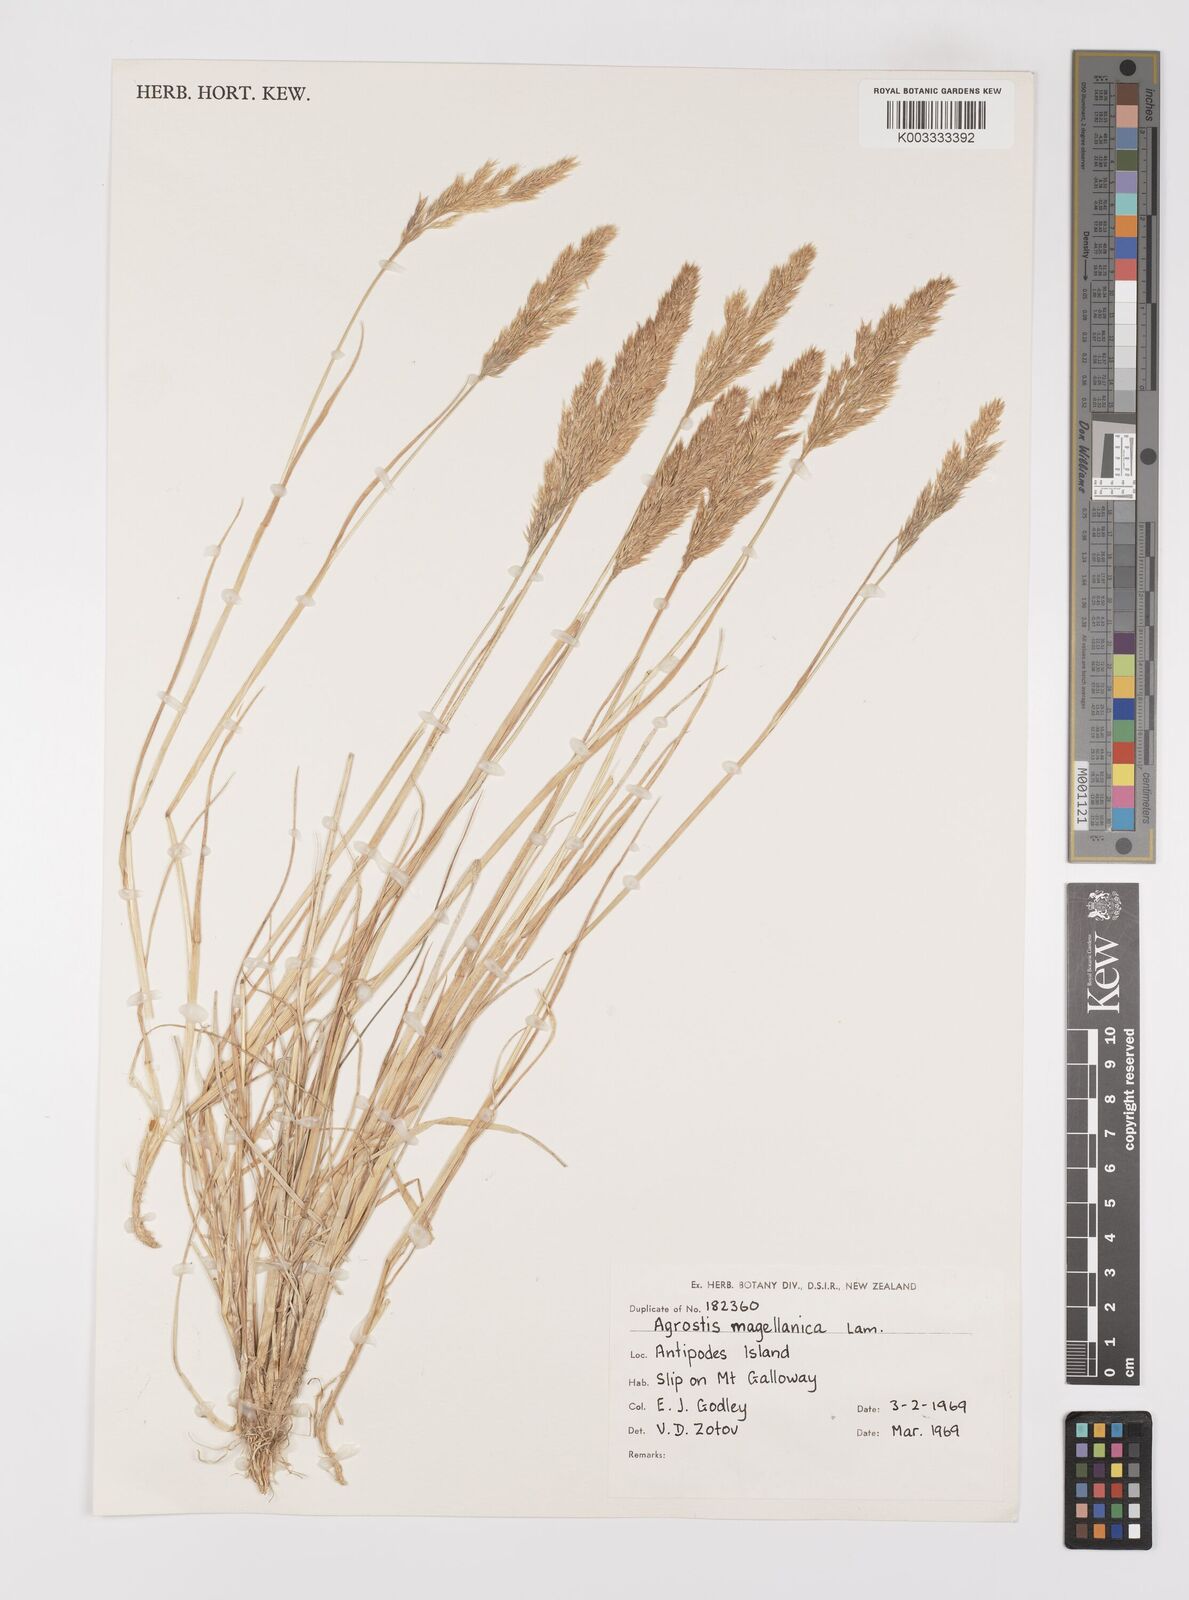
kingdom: Plantae
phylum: Tracheophyta
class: Liliopsida
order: Poales
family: Poaceae
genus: Polypogon
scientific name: Polypogon magellanicus
